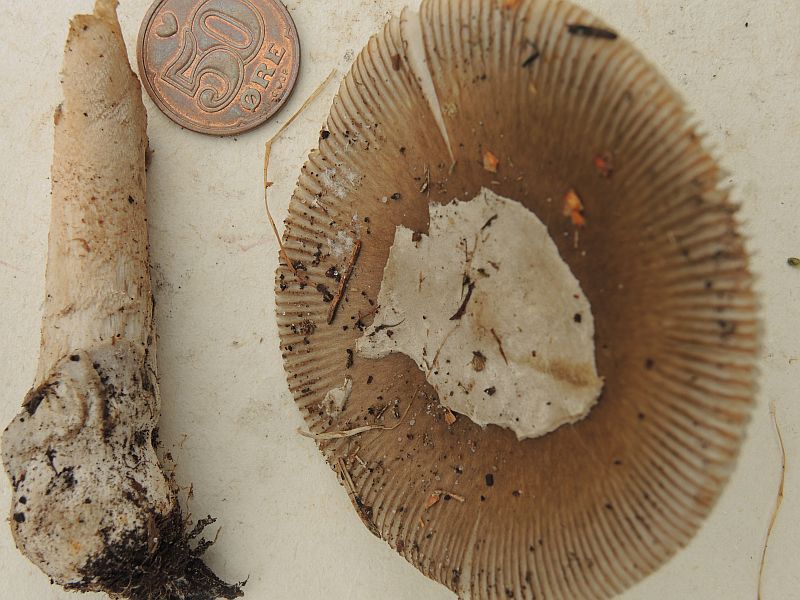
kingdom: Fungi
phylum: Basidiomycota
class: Agaricomycetes
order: Agaricales
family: Amanitaceae
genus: Amanita
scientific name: Amanita submembranacea
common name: gråspættet kam-fluesvamp
